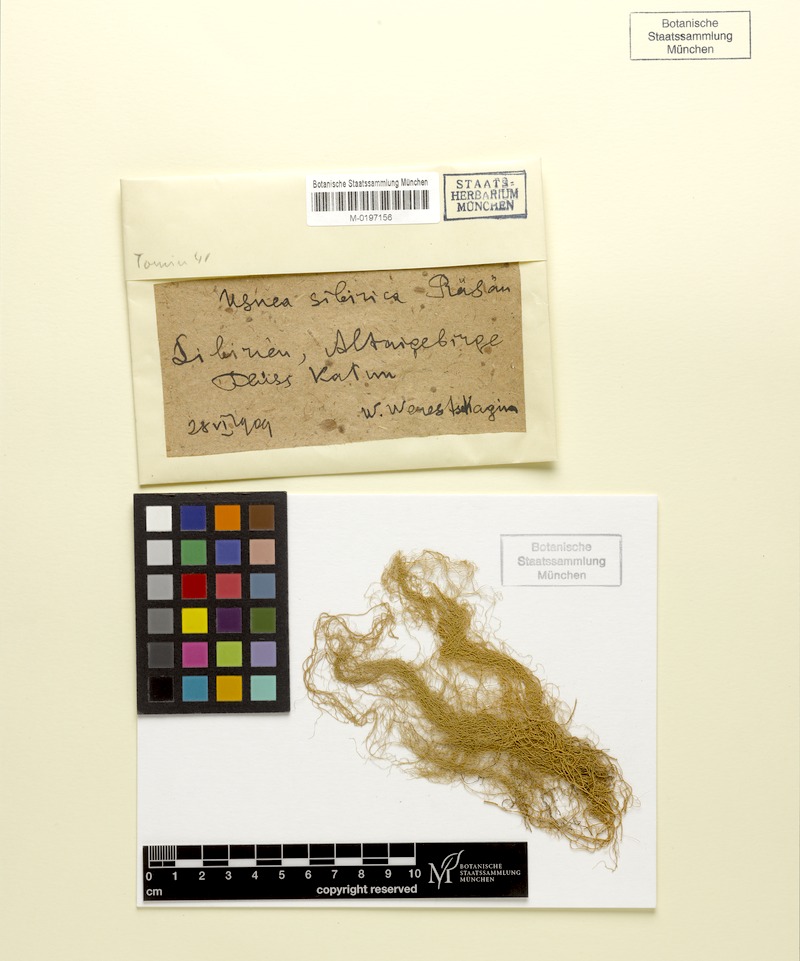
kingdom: Fungi
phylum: Ascomycota
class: Lecanoromycetes
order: Lecanorales
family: Parmeliaceae
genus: Usnea
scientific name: Usnea sibirica
